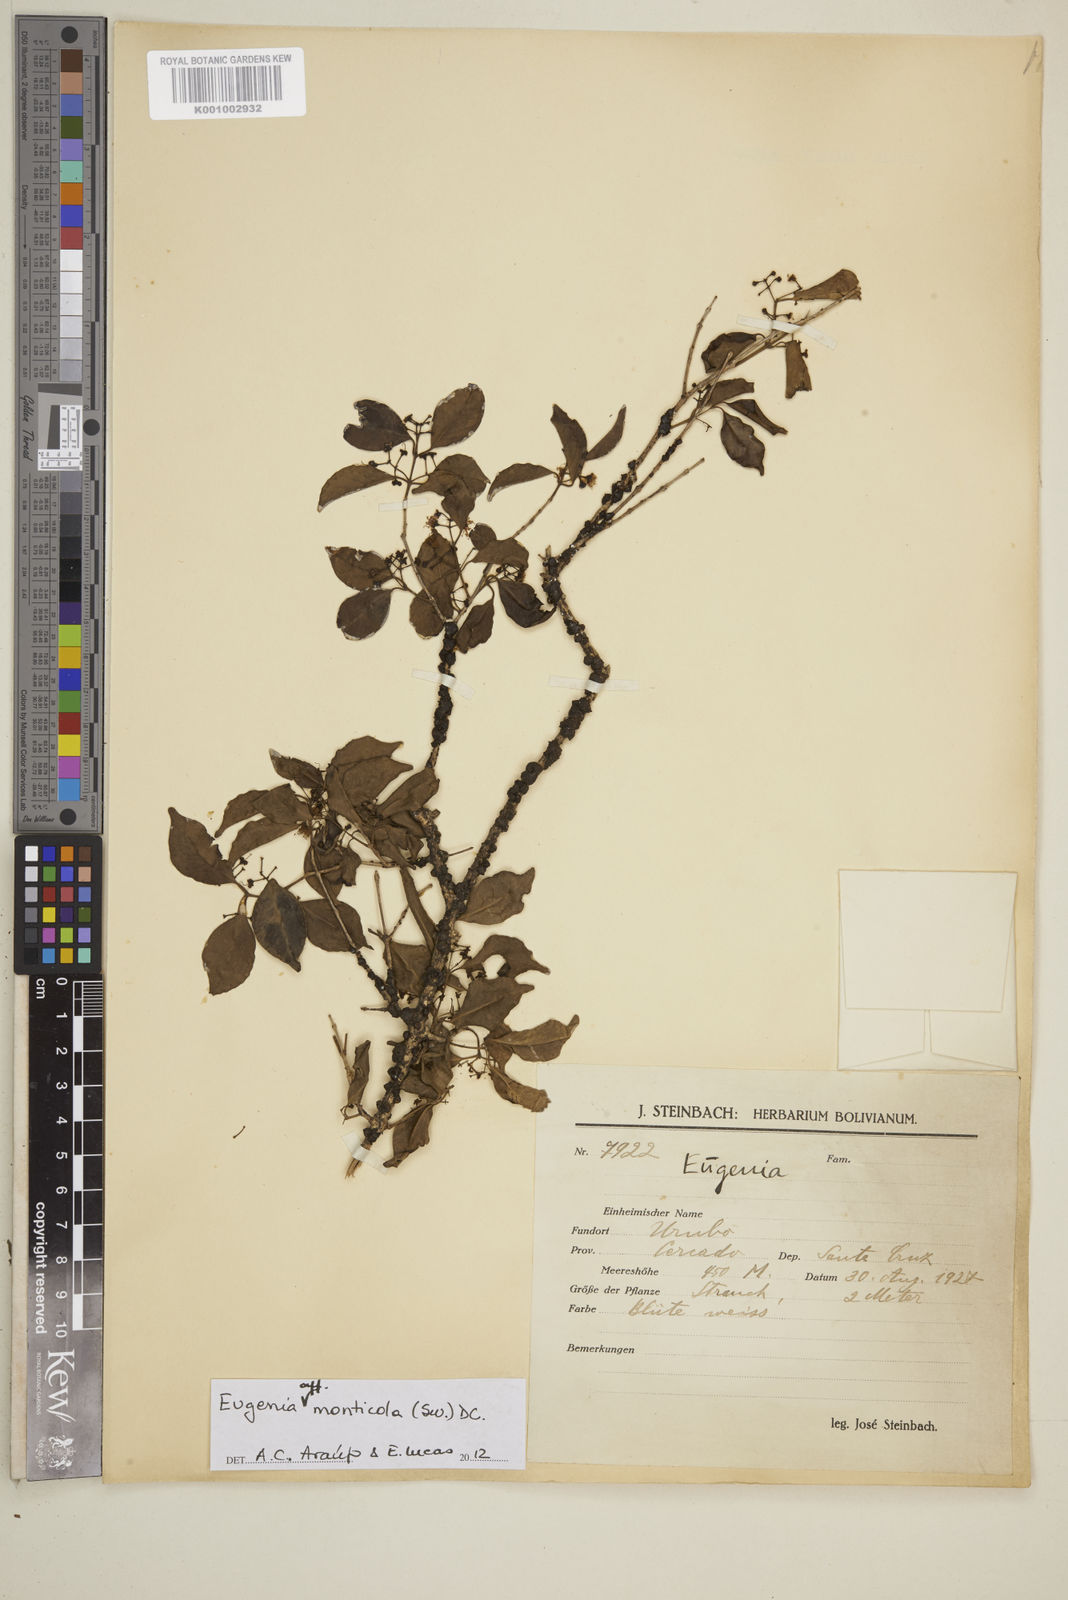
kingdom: Plantae
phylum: Tracheophyta
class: Magnoliopsida
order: Myrtales
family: Myrtaceae
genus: Eugenia
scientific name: Eugenia monticola
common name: Birds berry
